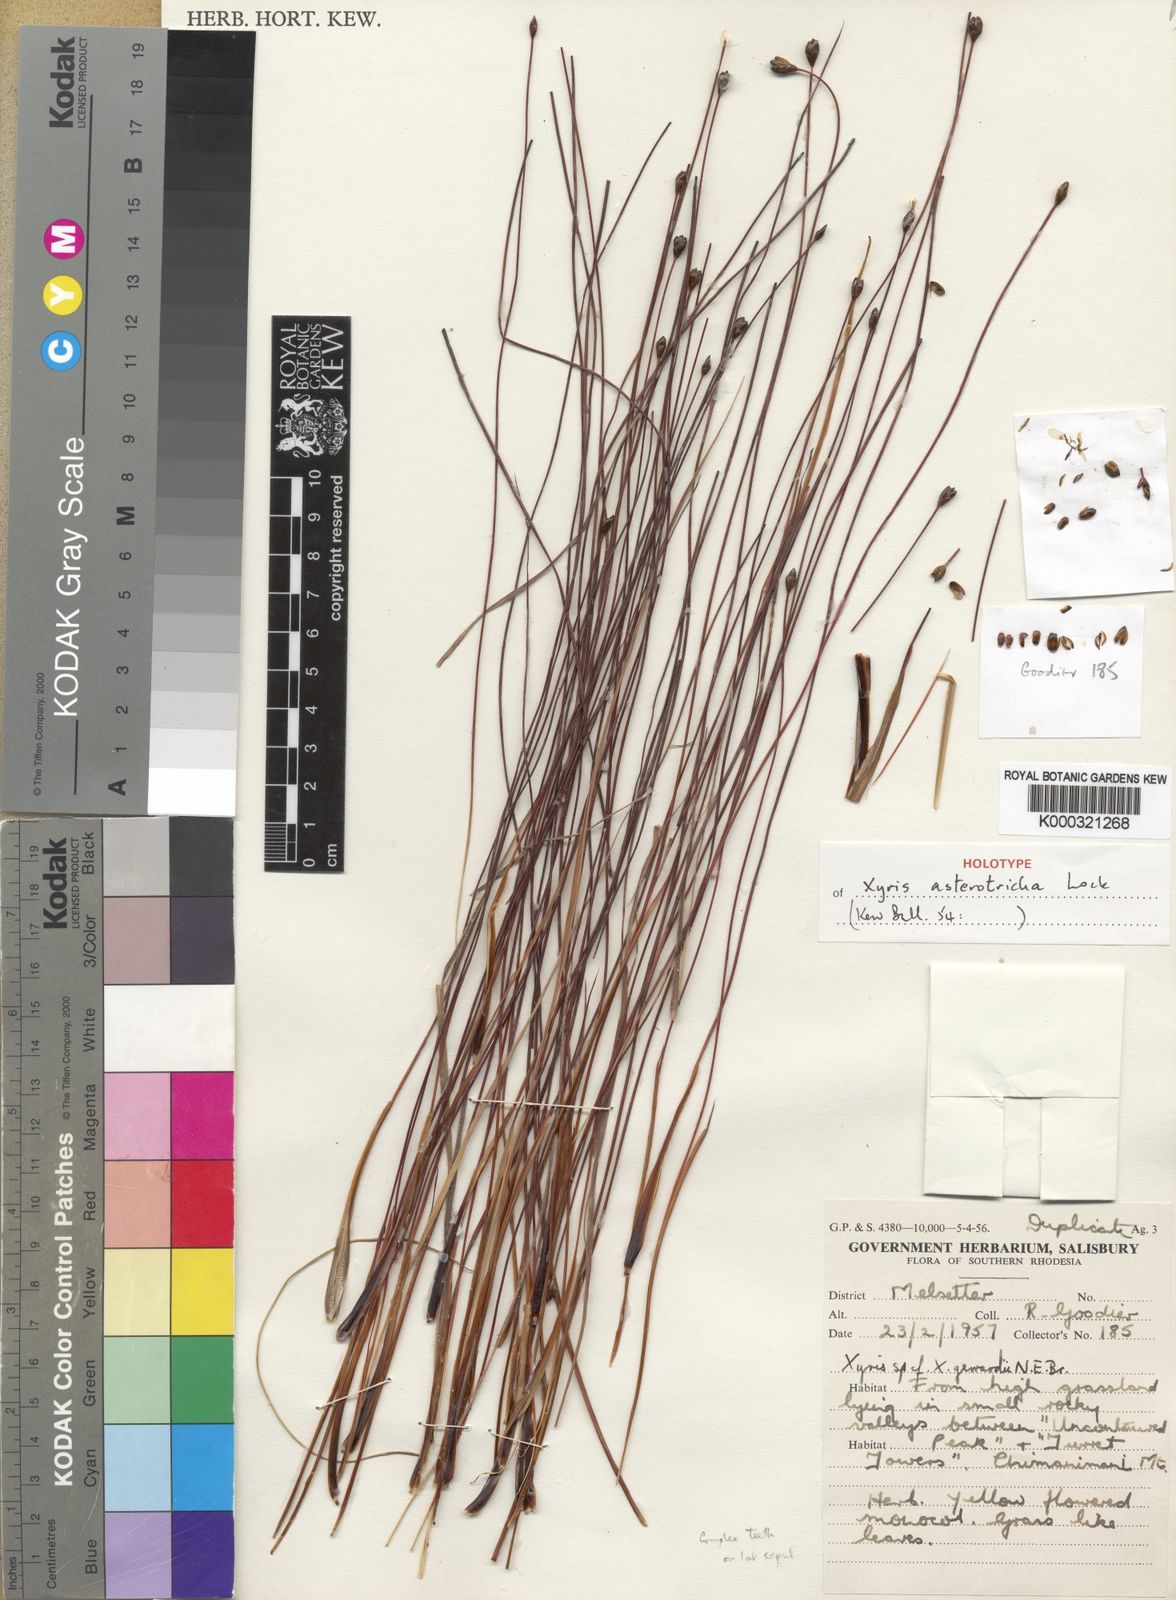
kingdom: Plantae
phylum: Tracheophyta
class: Liliopsida
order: Poales
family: Xyridaceae
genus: Xyris
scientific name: Xyris asterotricha
